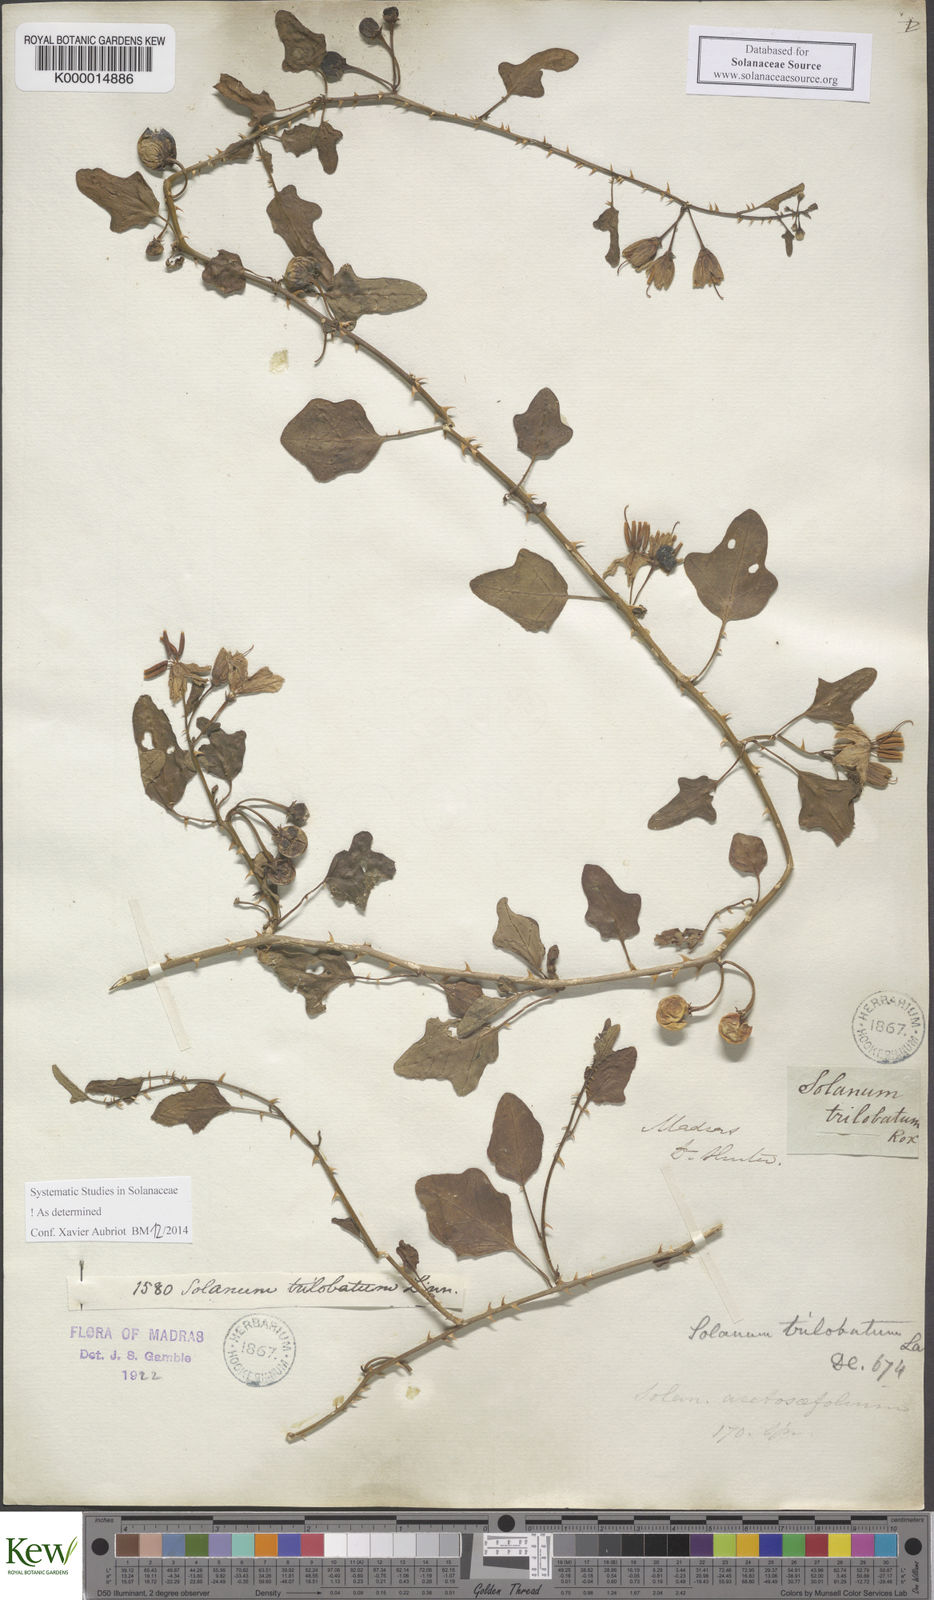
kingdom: Plantae
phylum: Tracheophyta
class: Magnoliopsida
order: Solanales
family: Solanaceae
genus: Solanum
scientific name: Solanum trilobatum
